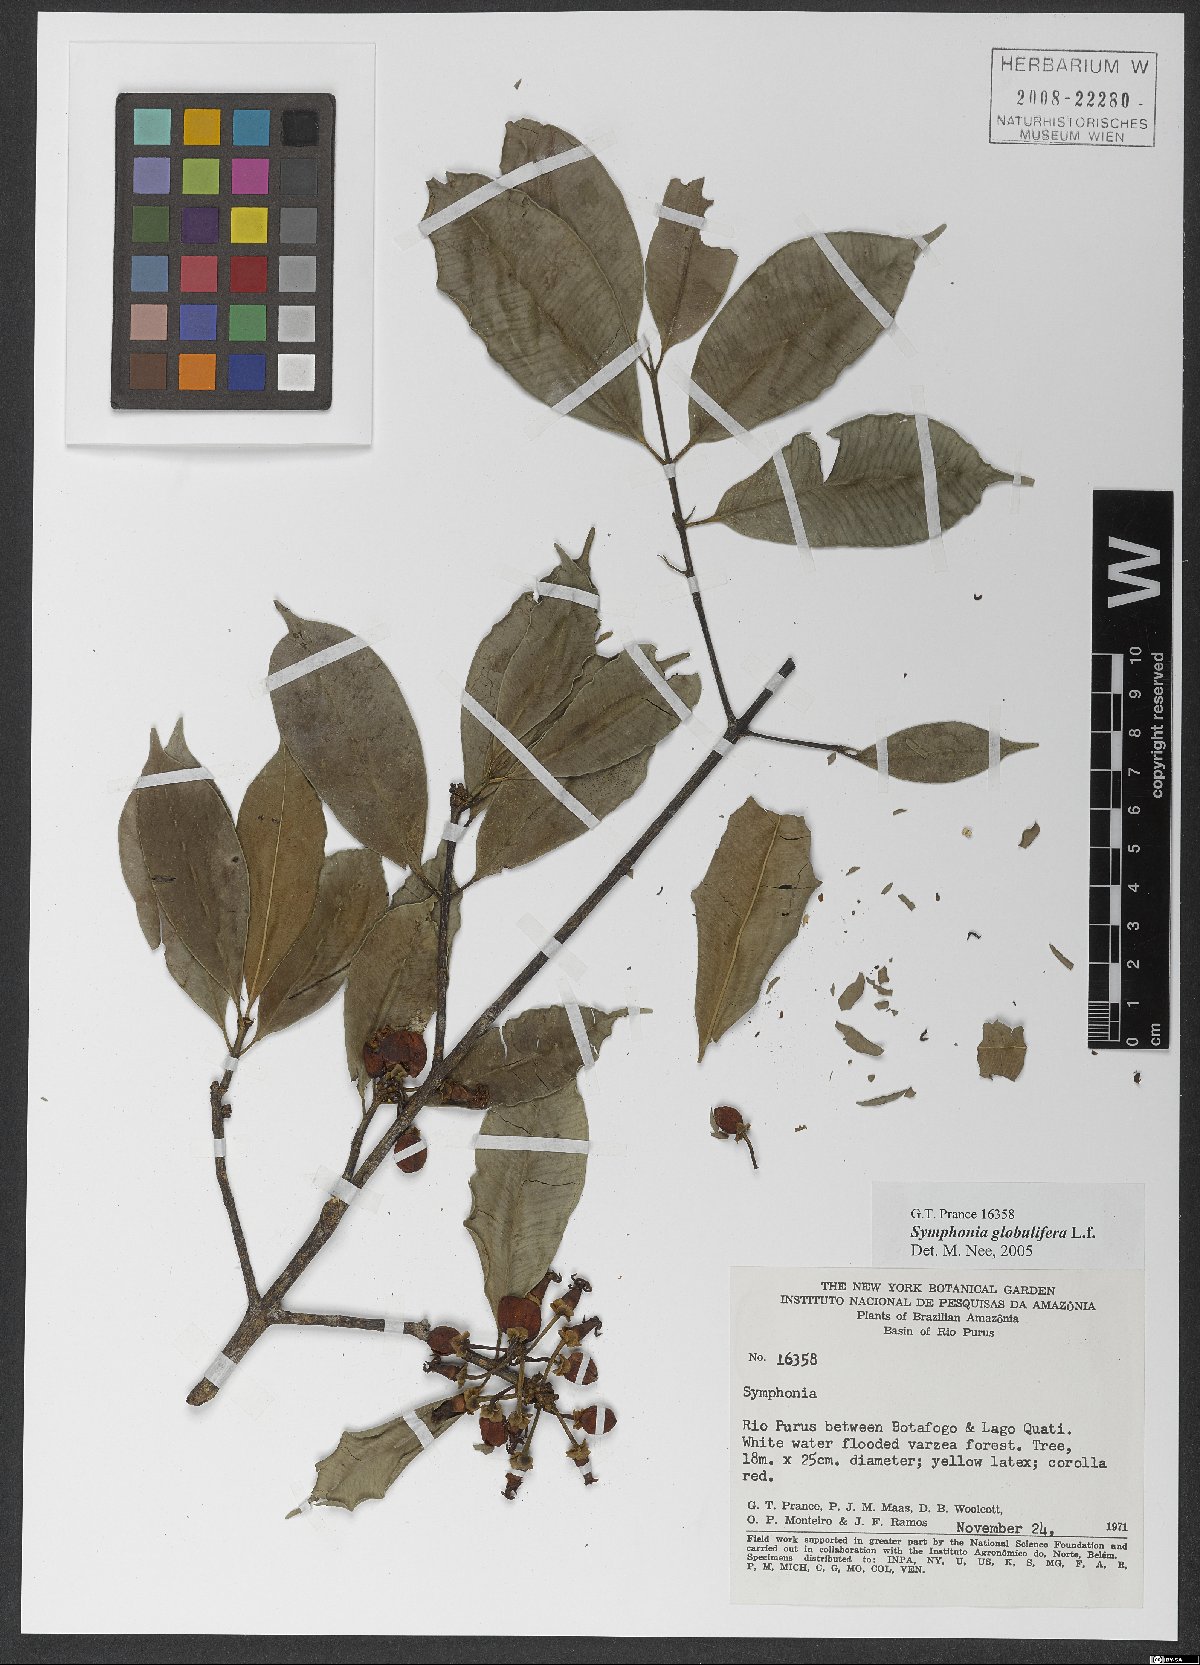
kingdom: Plantae
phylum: Tracheophyta
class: Magnoliopsida
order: Malpighiales
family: Clusiaceae
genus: Symphonia
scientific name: Symphonia globulifera
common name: Boarwood
